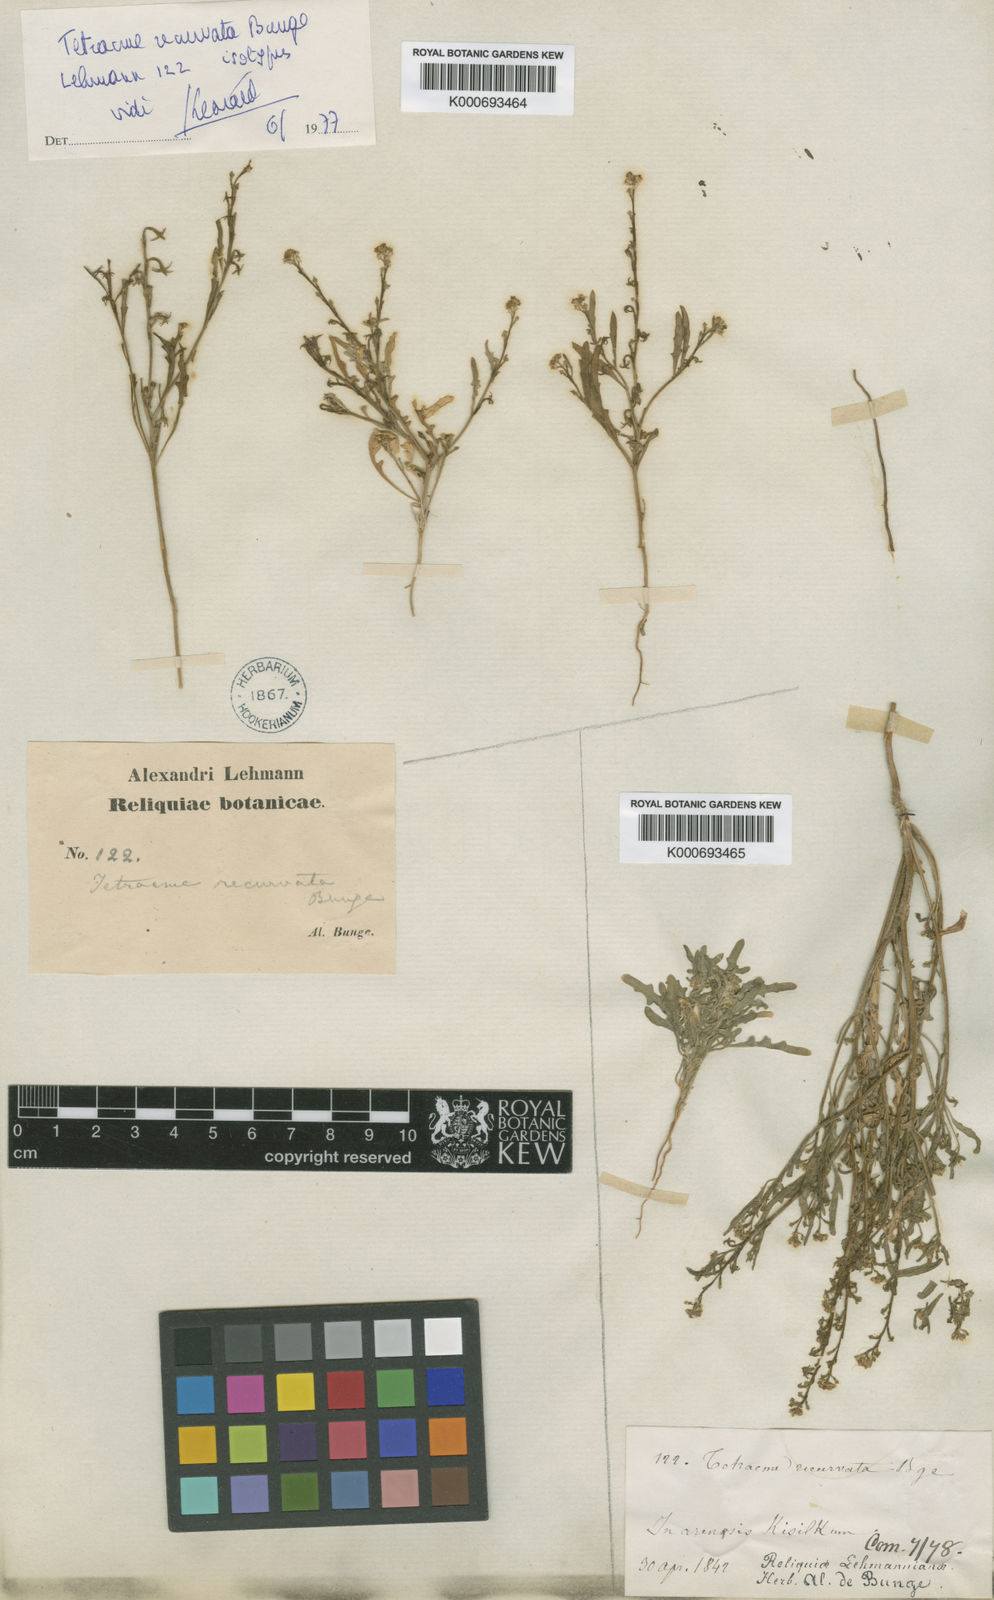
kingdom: Plantae
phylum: Tracheophyta
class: Magnoliopsida
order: Brassicales
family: Brassicaceae
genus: Tetracme
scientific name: Tetracme recurvata
